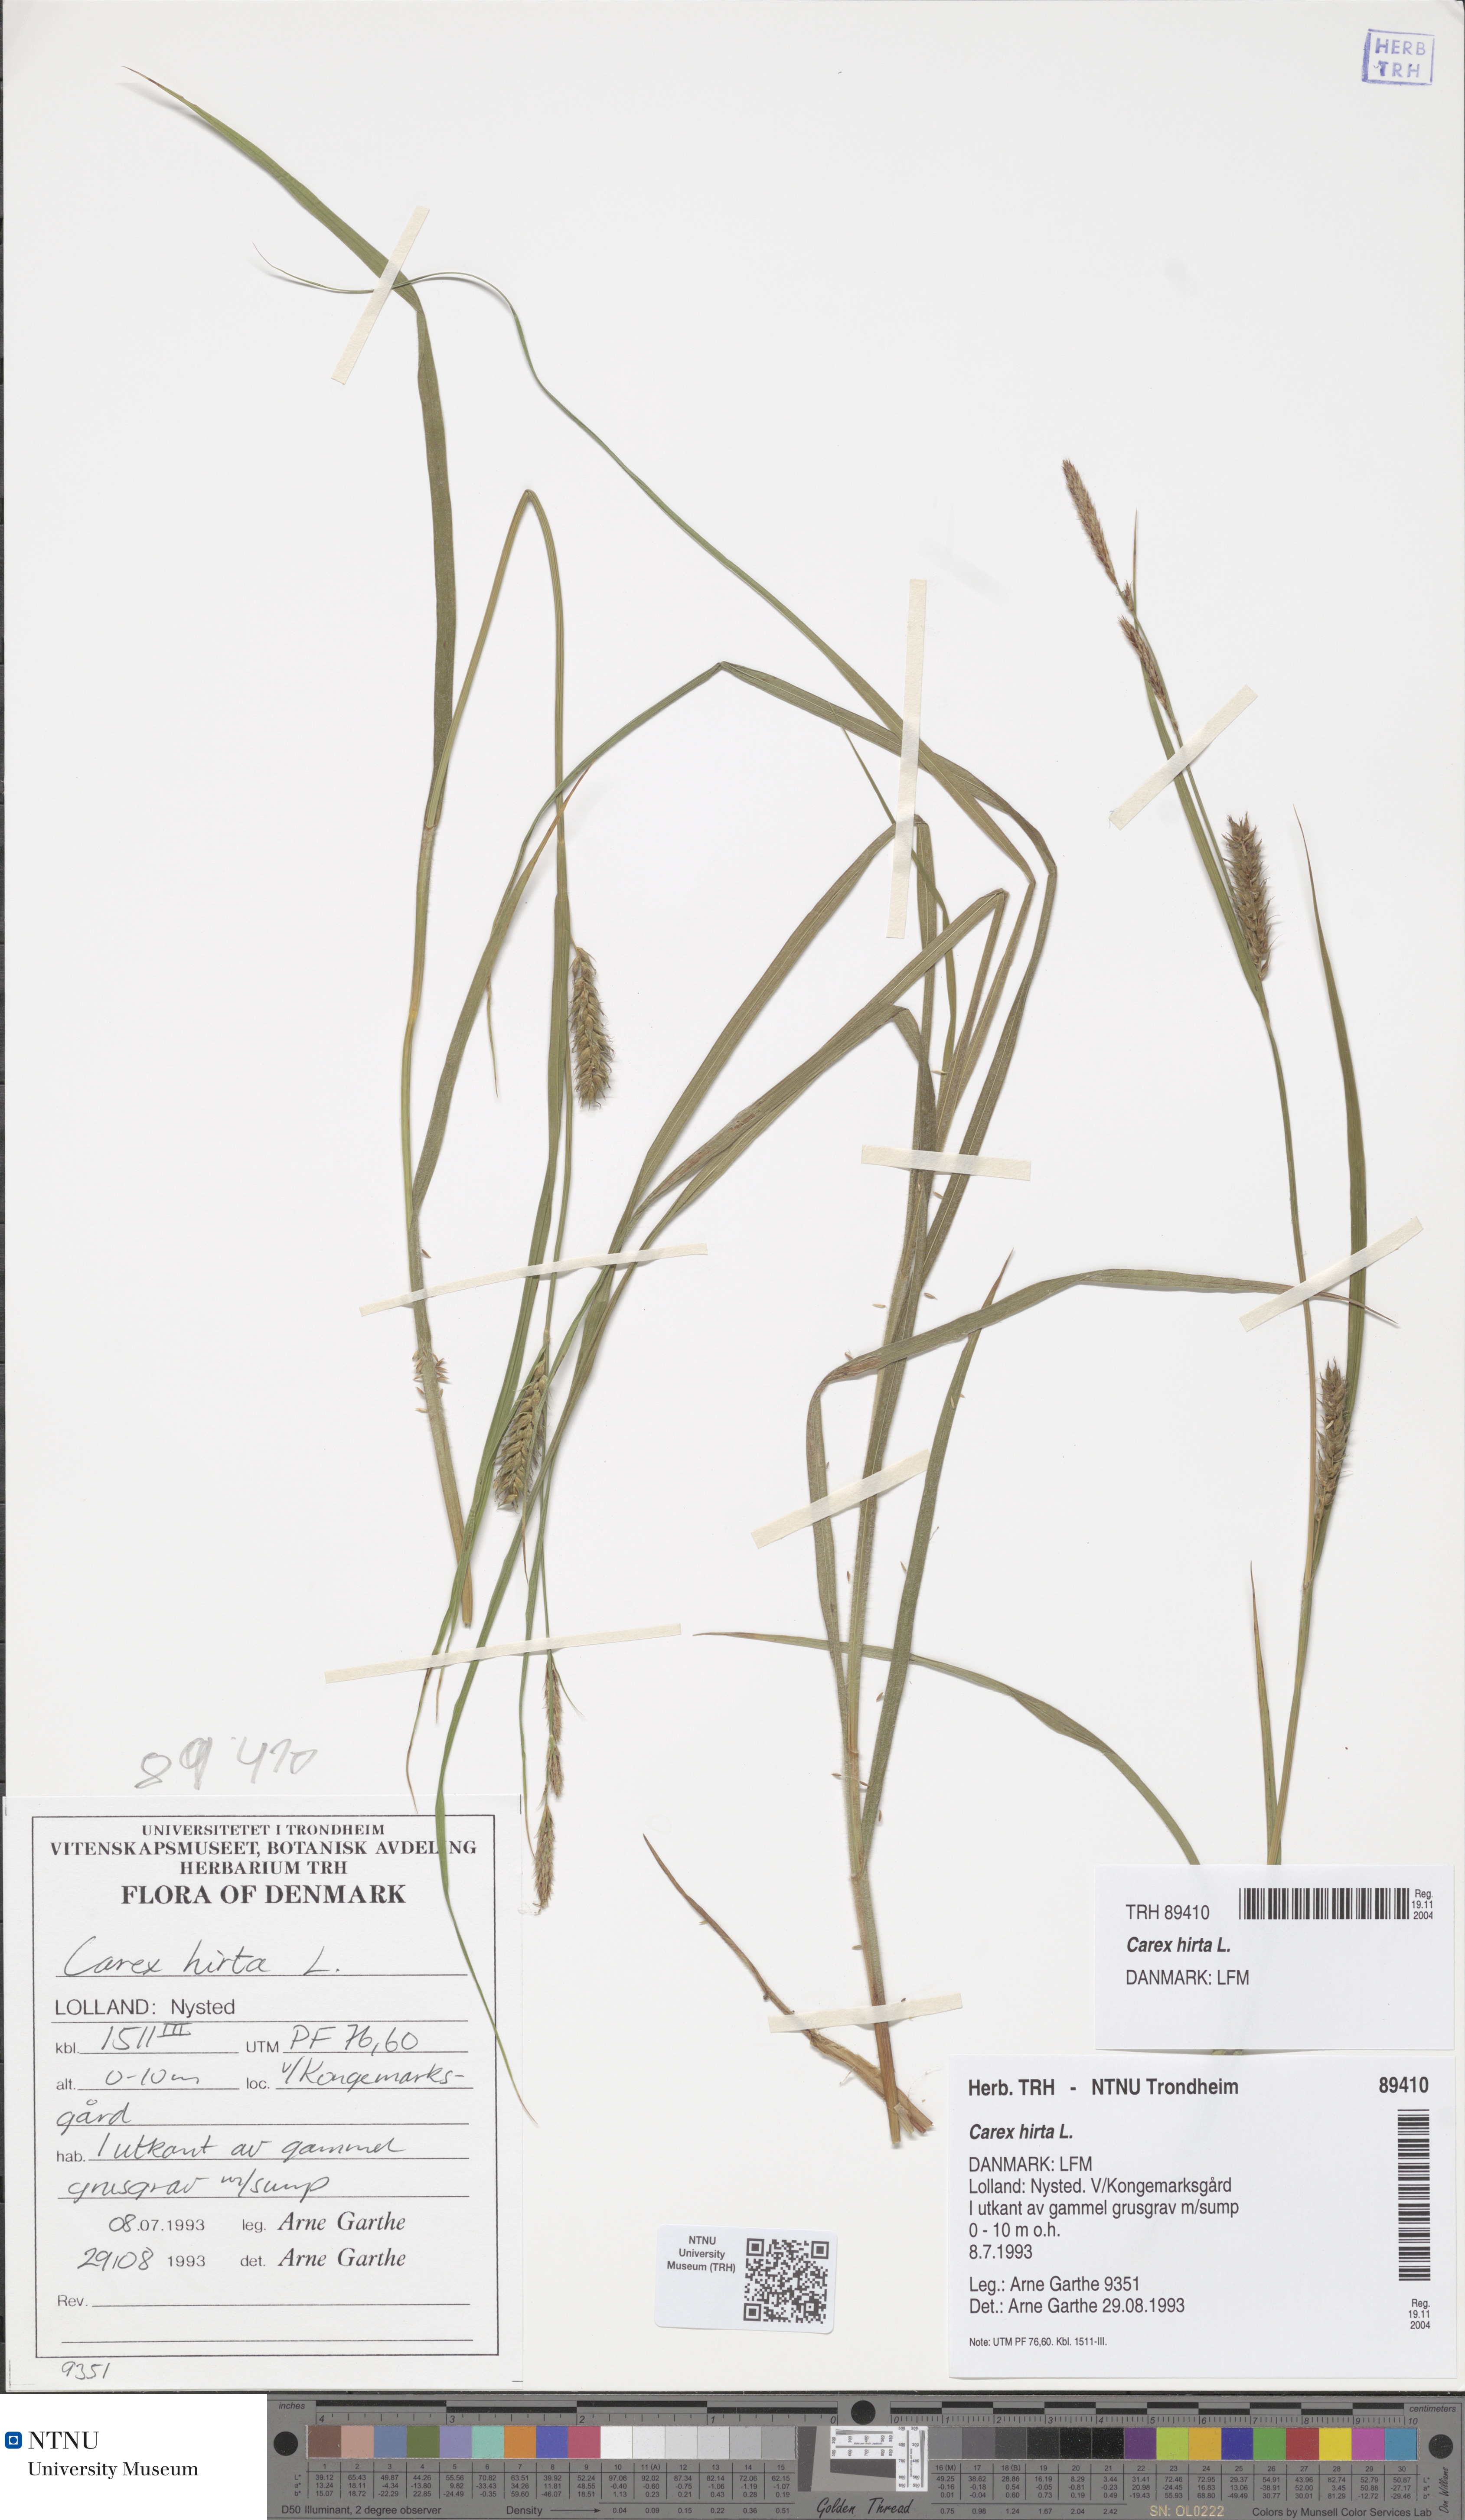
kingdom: Plantae
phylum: Tracheophyta
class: Liliopsida
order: Poales
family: Cyperaceae
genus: Carex
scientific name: Carex hirta
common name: Hairy sedge
